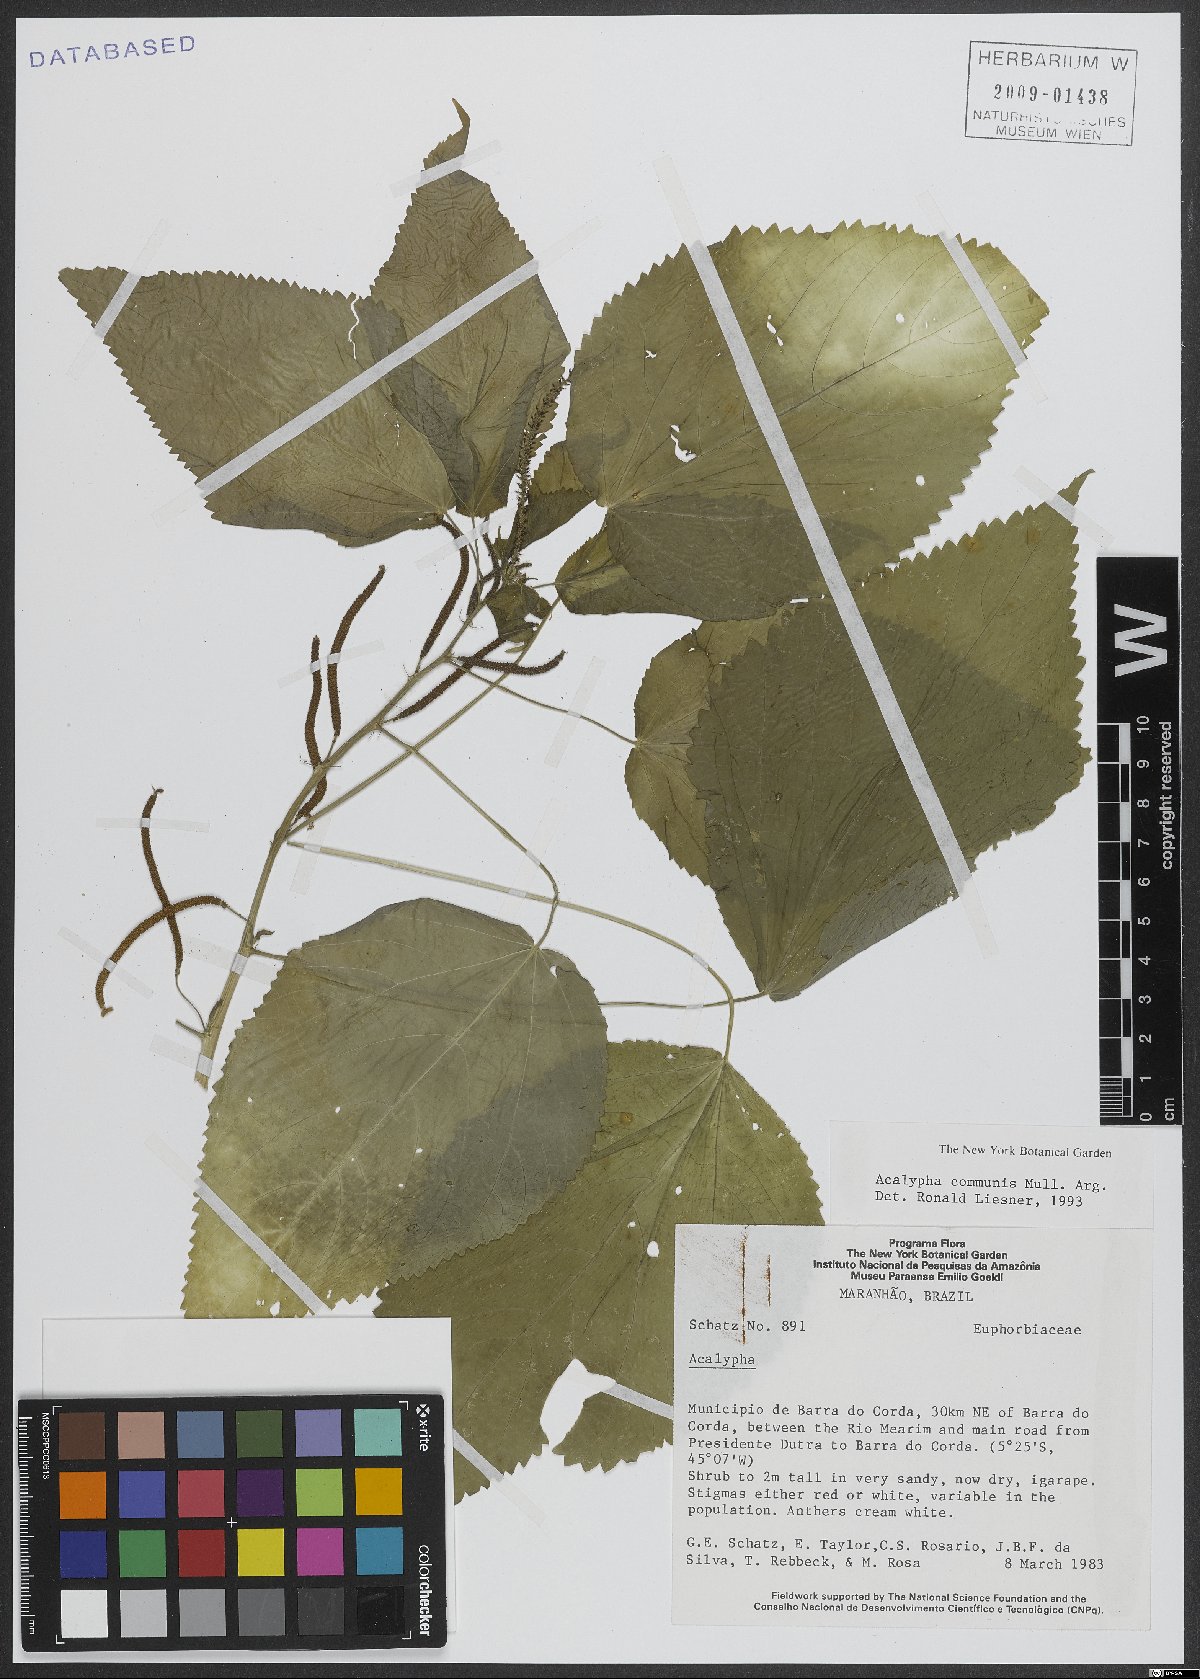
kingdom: Plantae
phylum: Tracheophyta
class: Magnoliopsida
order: Malpighiales
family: Euphorbiaceae
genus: Acalypha
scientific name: Acalypha communis
